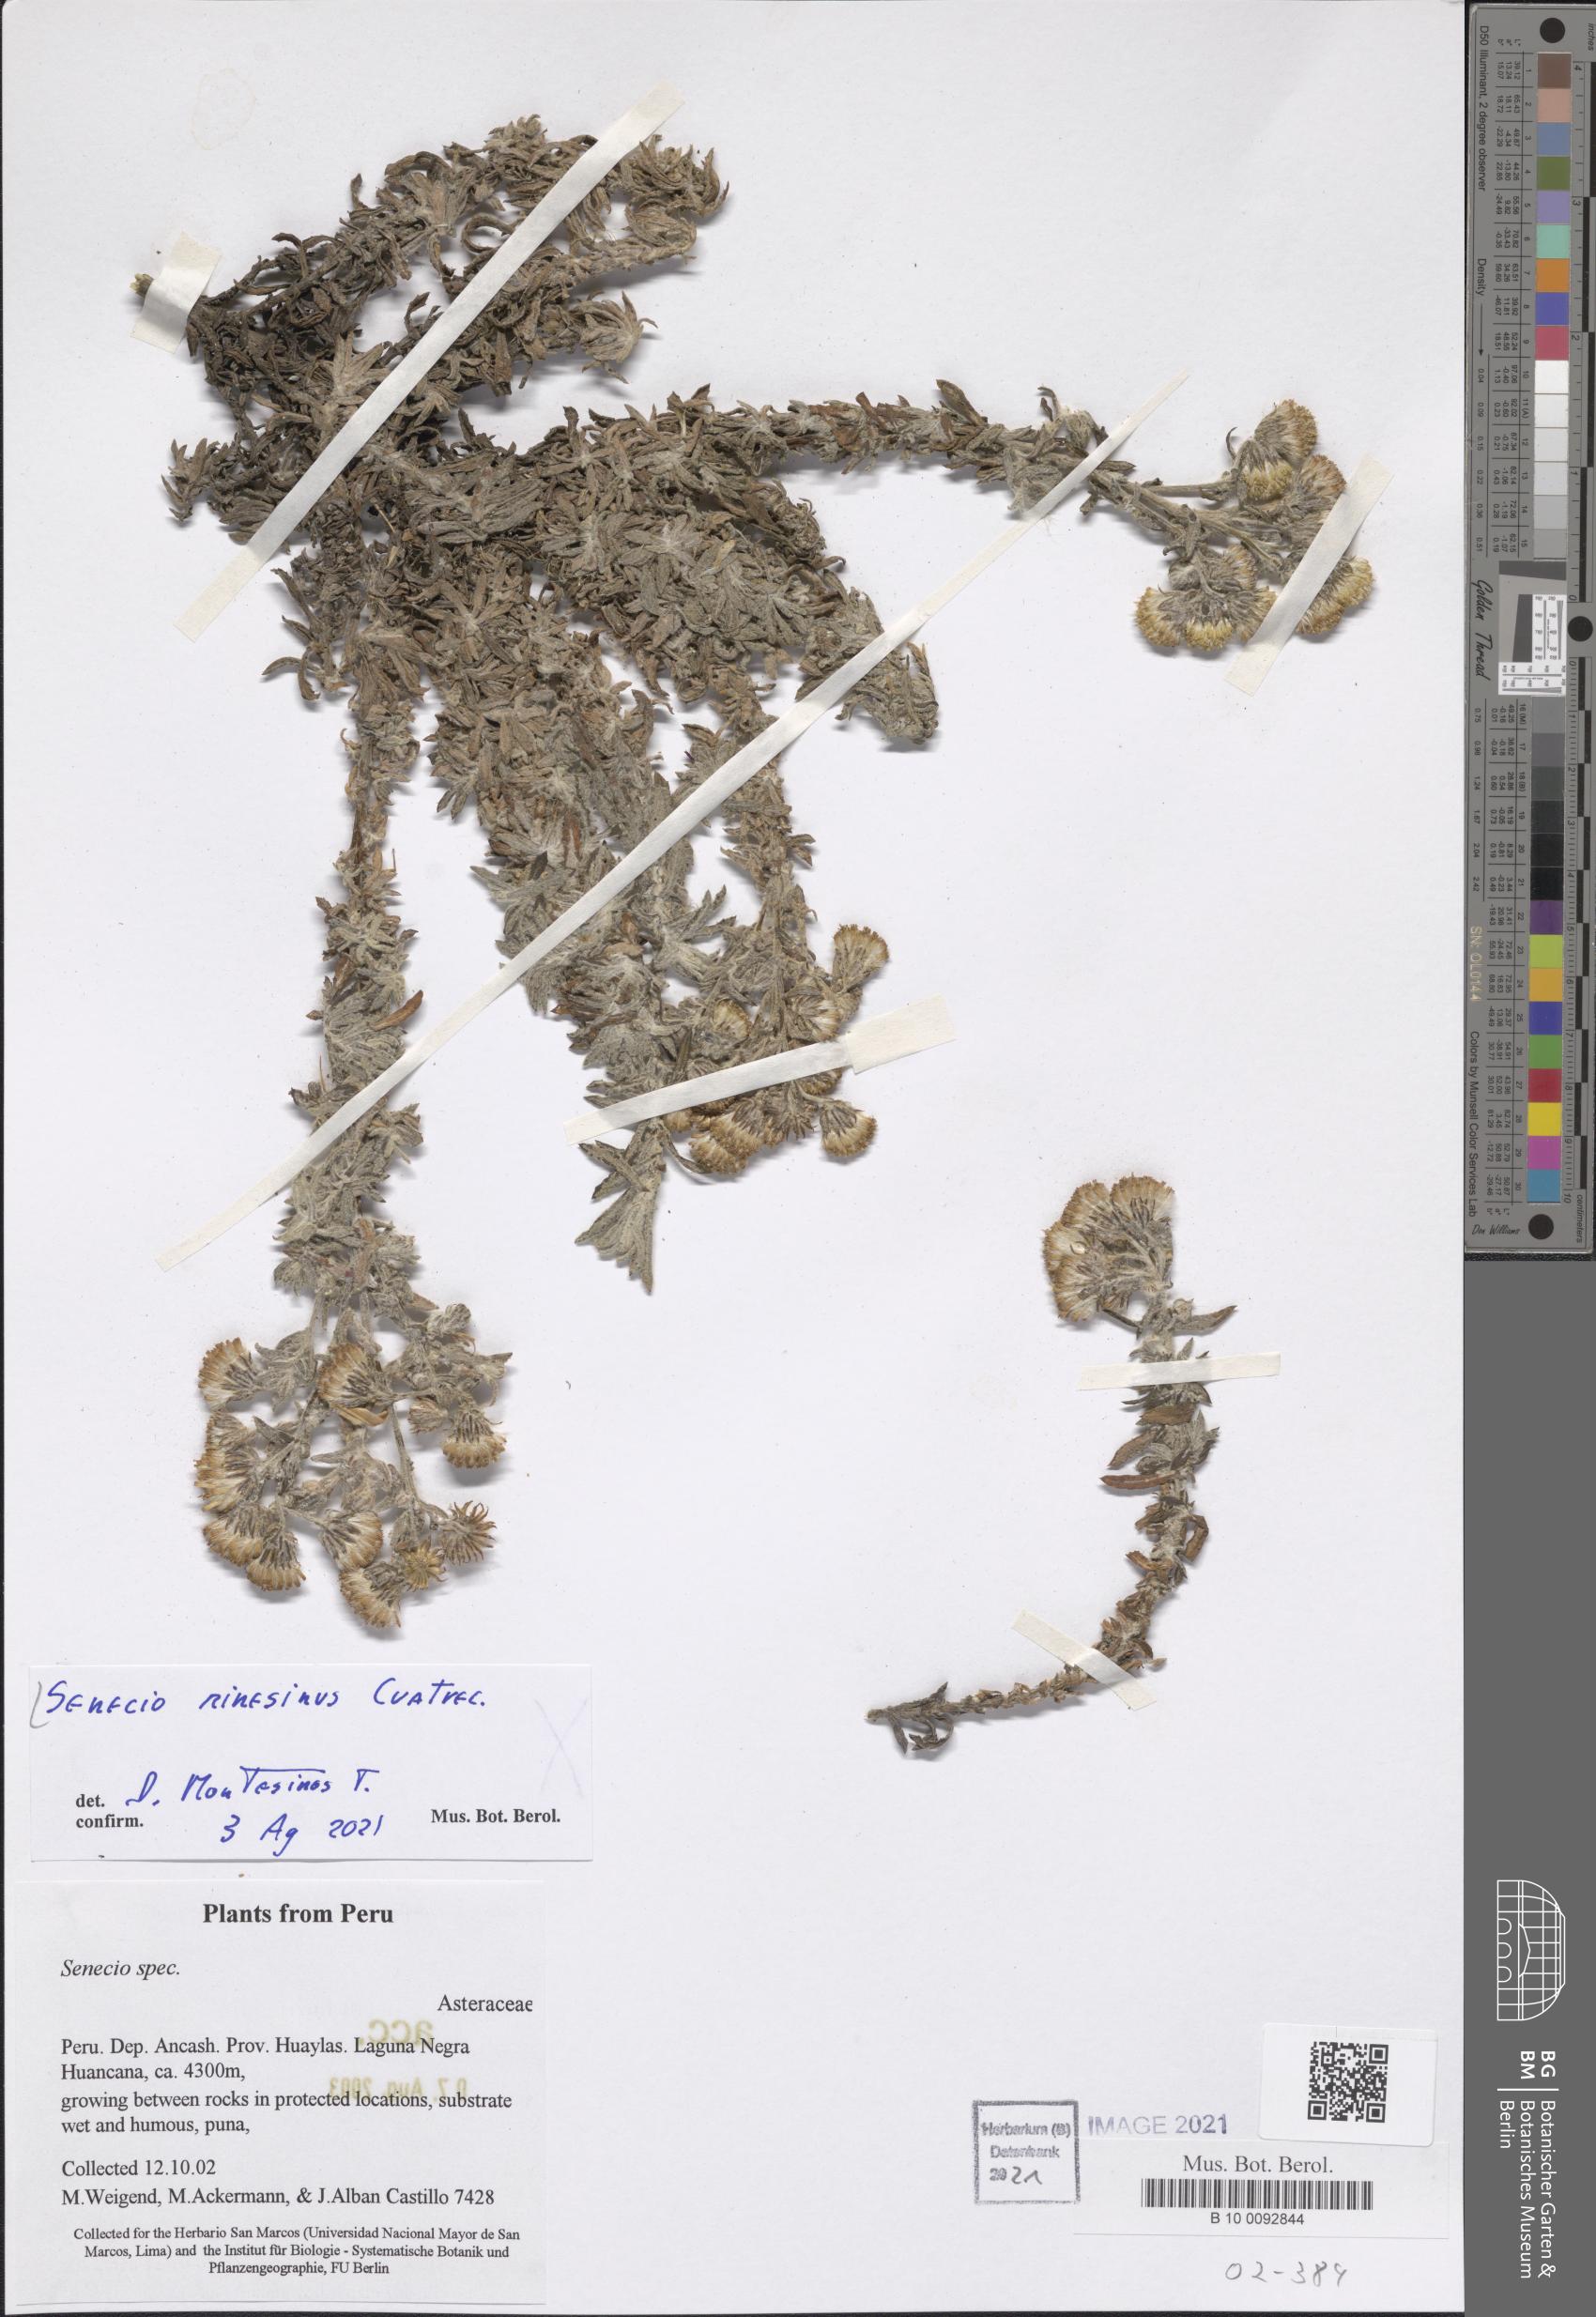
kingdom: Plantae
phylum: Tracheophyta
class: Magnoliopsida
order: Asterales
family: Asteraceae
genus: Senecio
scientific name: Senecio minesinus
